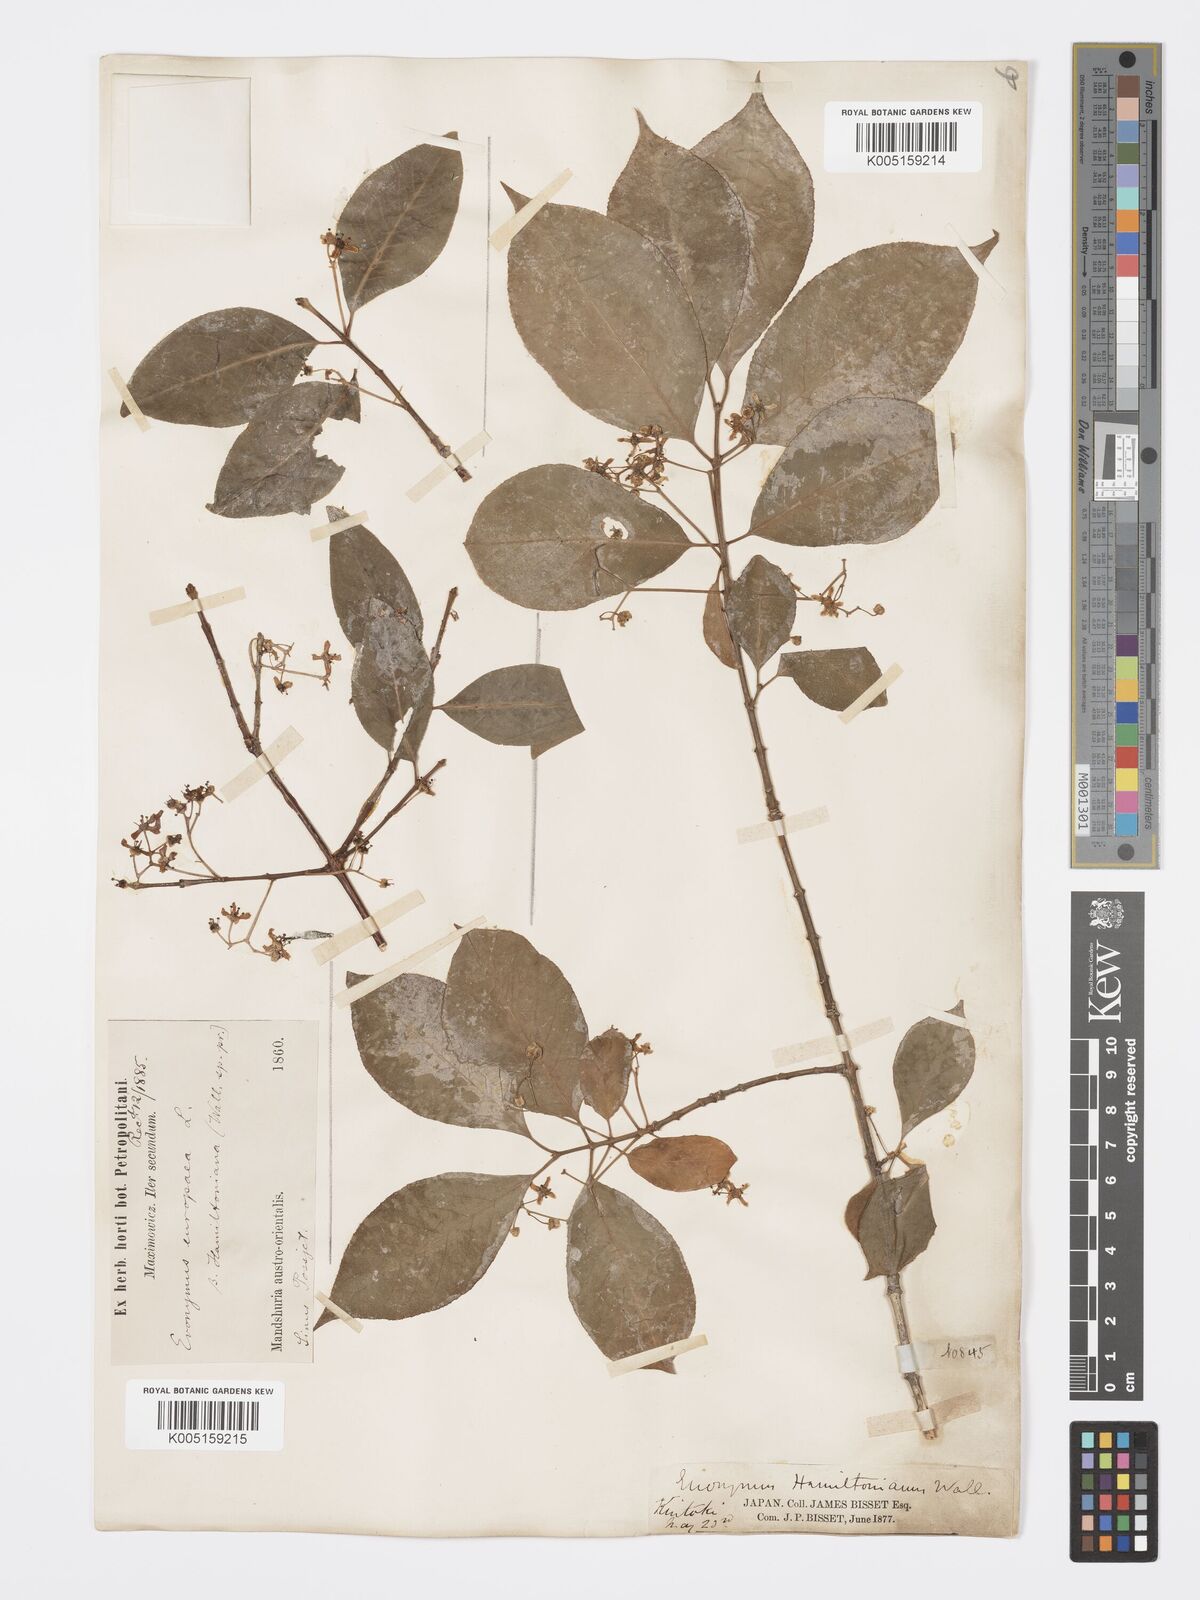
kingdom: Plantae
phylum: Tracheophyta
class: Magnoliopsida
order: Celastrales
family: Celastraceae
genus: Euonymus
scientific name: Euonymus hamiltonianus
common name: Hamilton's spindletree
